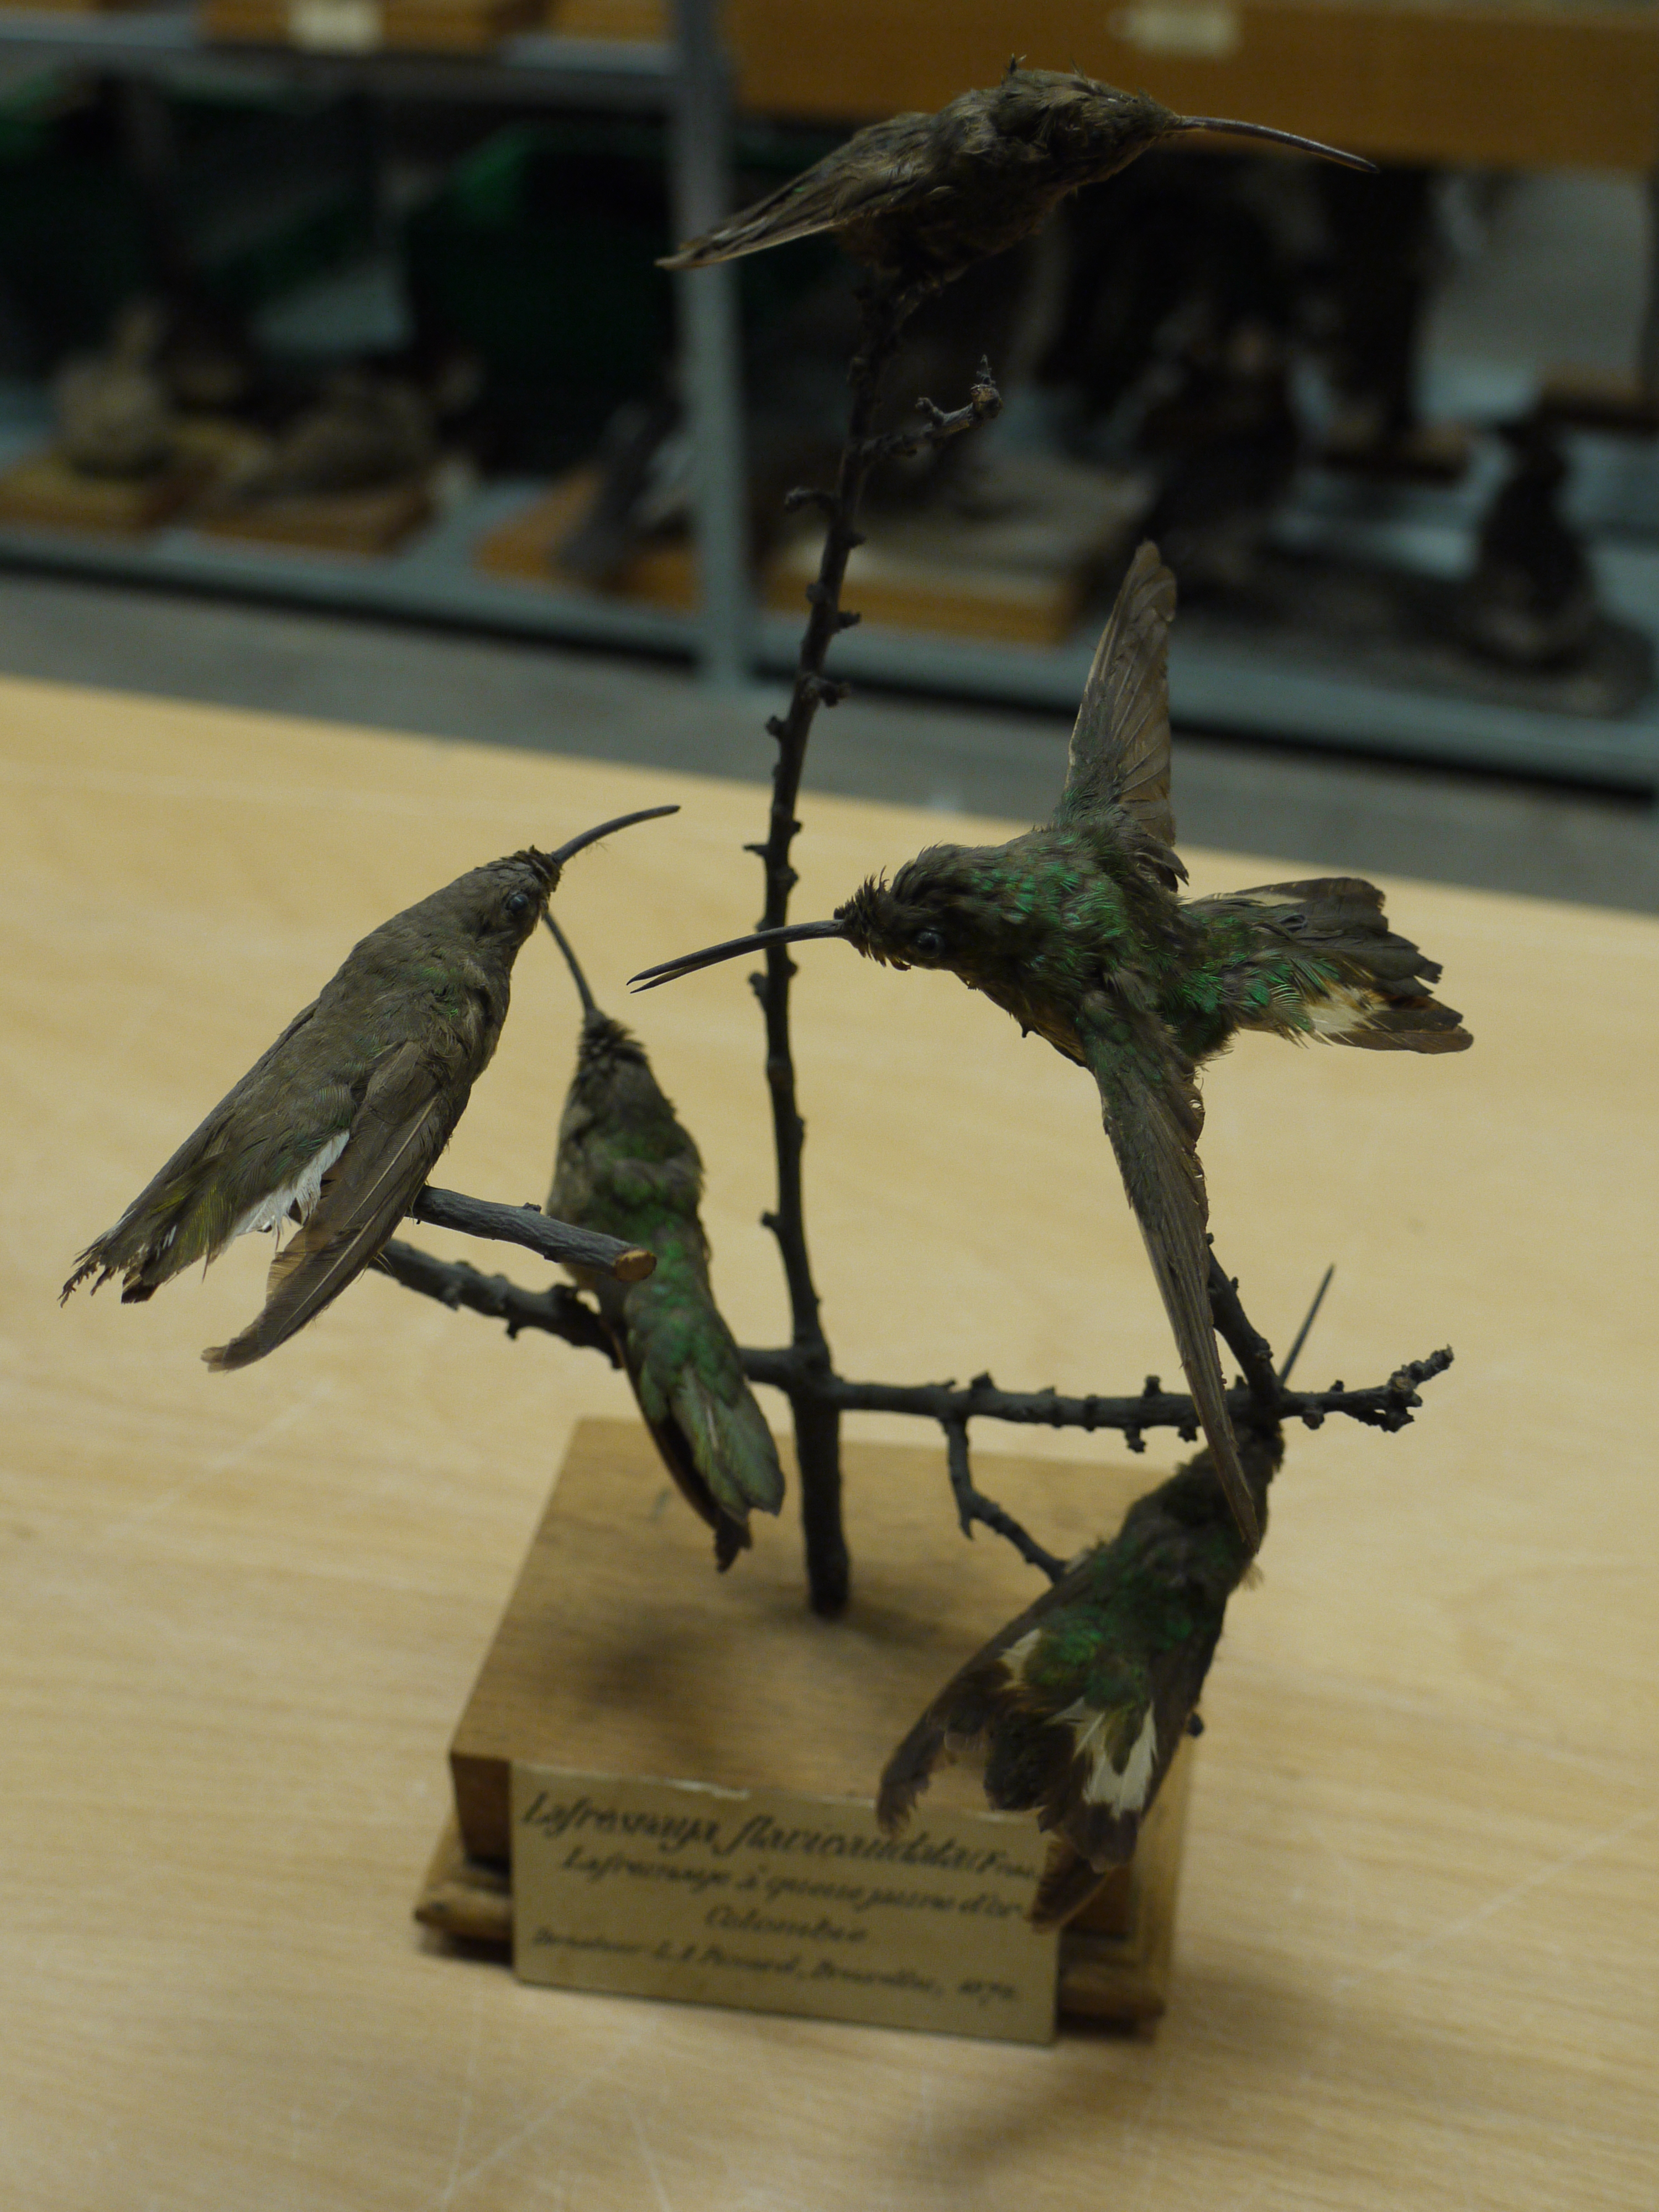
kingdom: Animalia
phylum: Chordata
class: Aves
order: Apodiformes
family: Trochilidae
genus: Lafresnaya
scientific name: Lafresnaya lafresnayi
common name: Mountain velvetbreast
